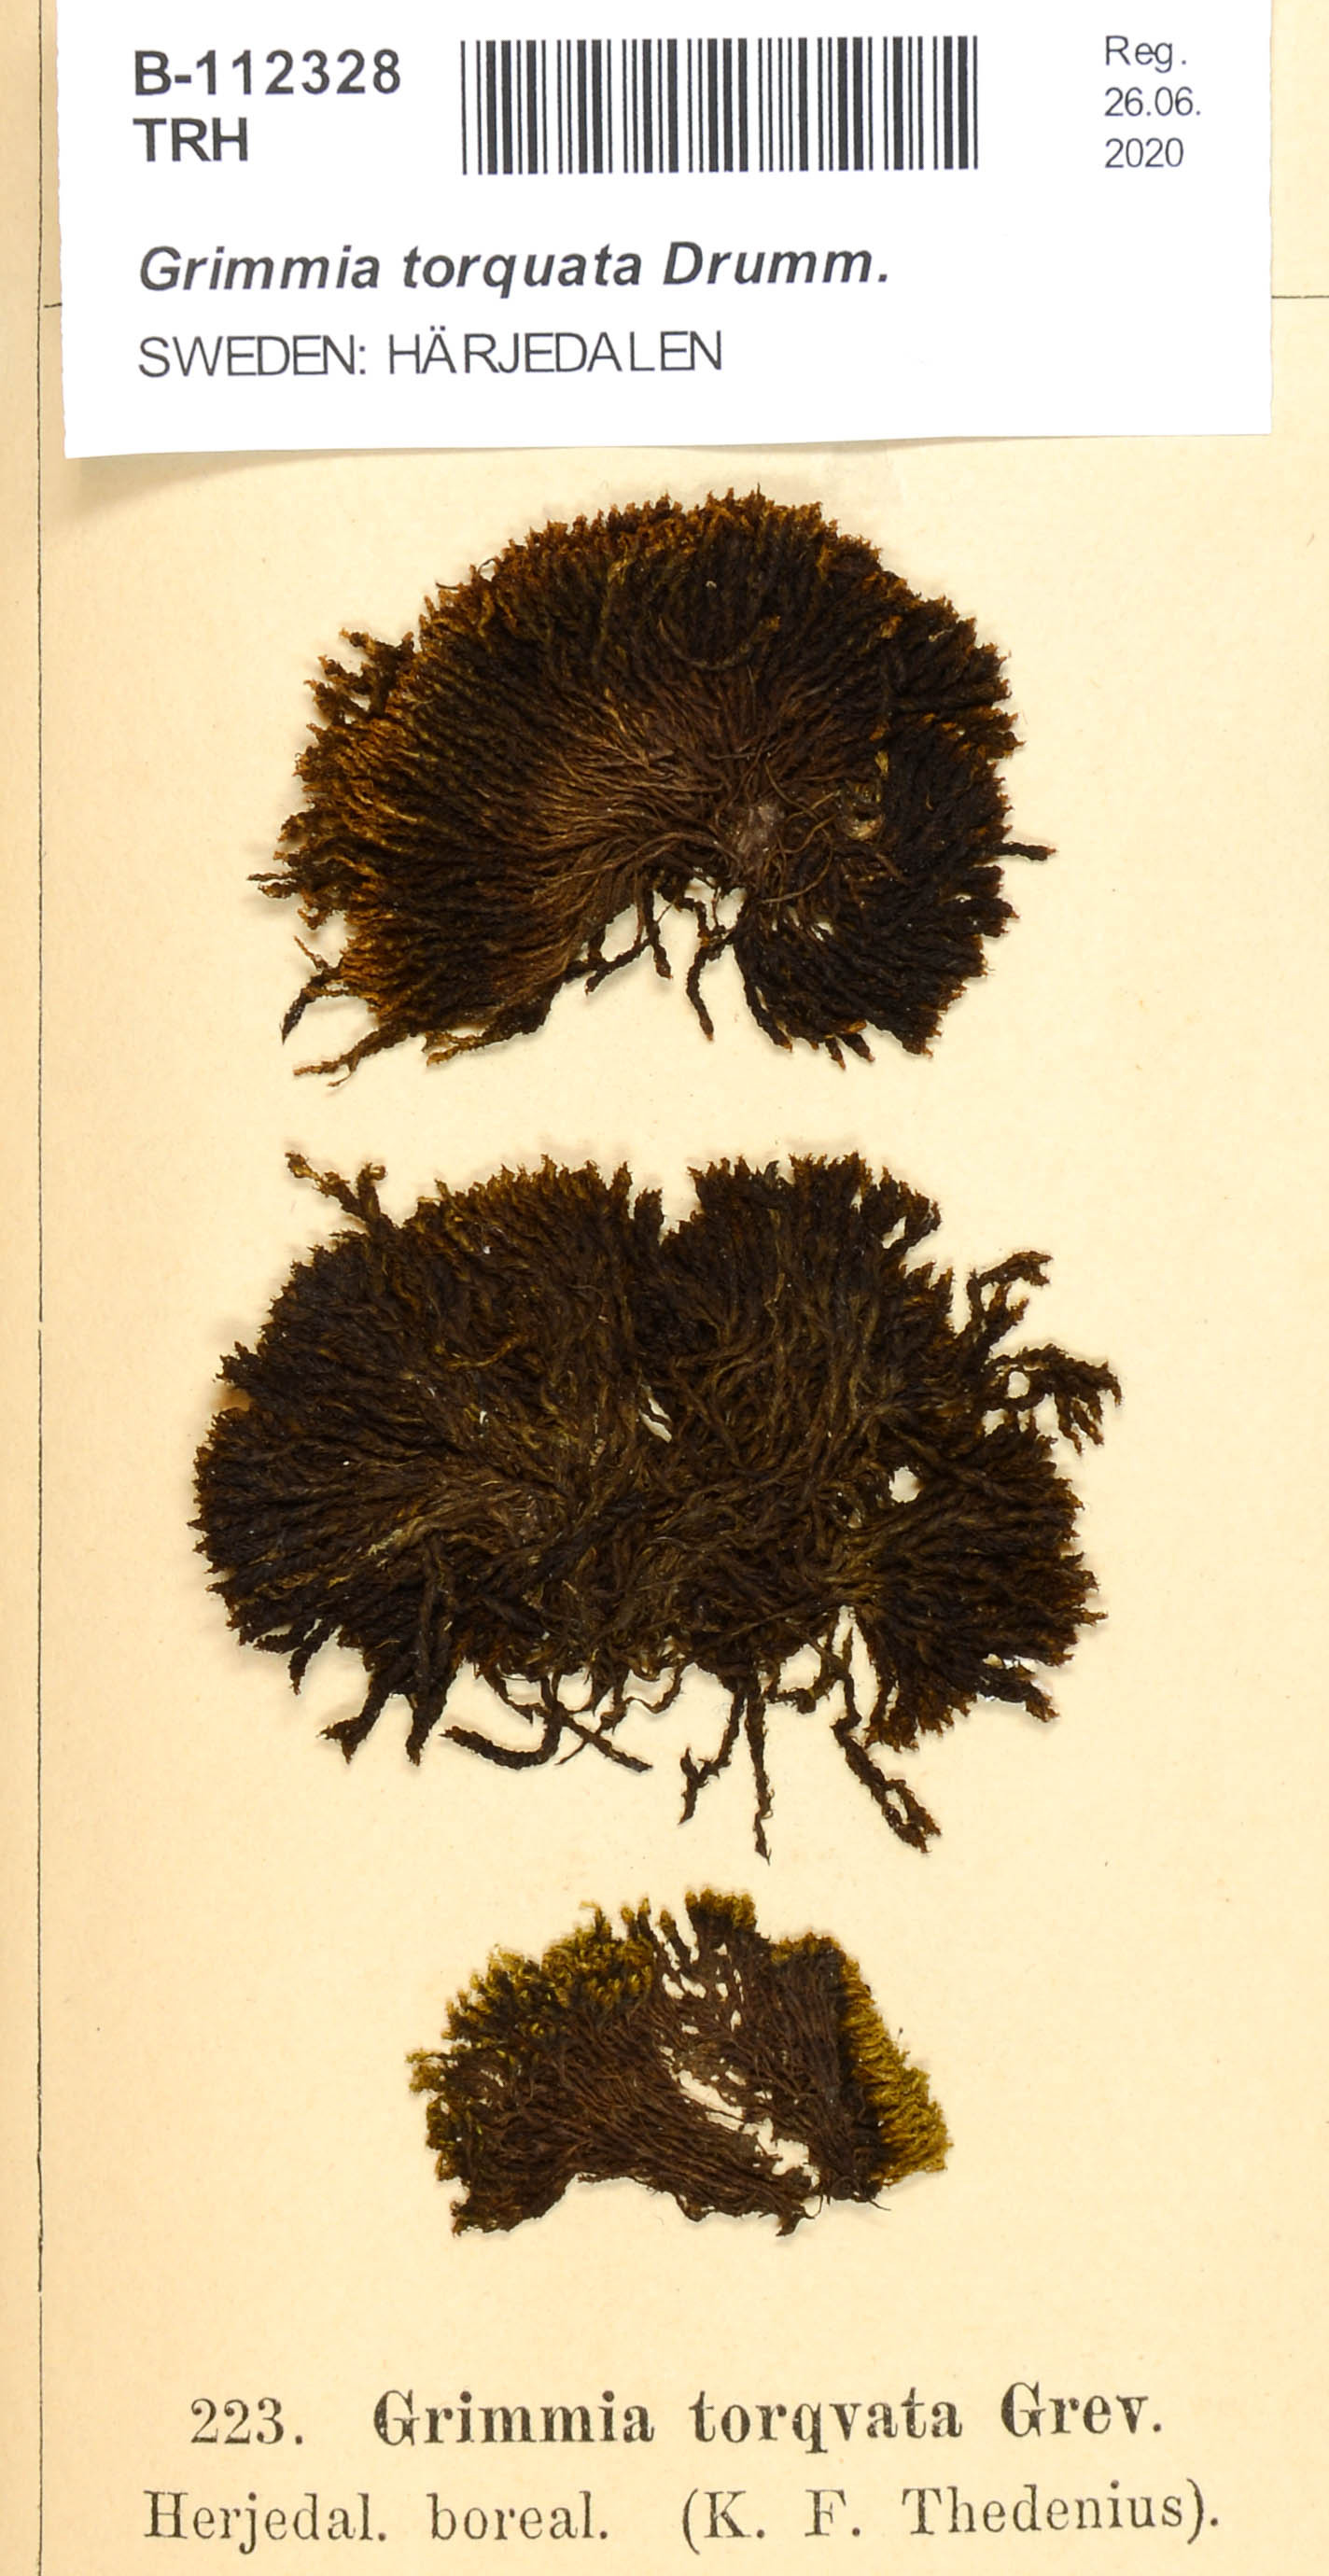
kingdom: Plantae
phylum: Bryophyta
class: Bryopsida
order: Grimmiales
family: Grimmiaceae
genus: Grimmia
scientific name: Grimmia torquata
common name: Twisted grimmia
